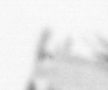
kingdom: Animalia
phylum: Annelida
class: Polychaeta
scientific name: Polychaeta
